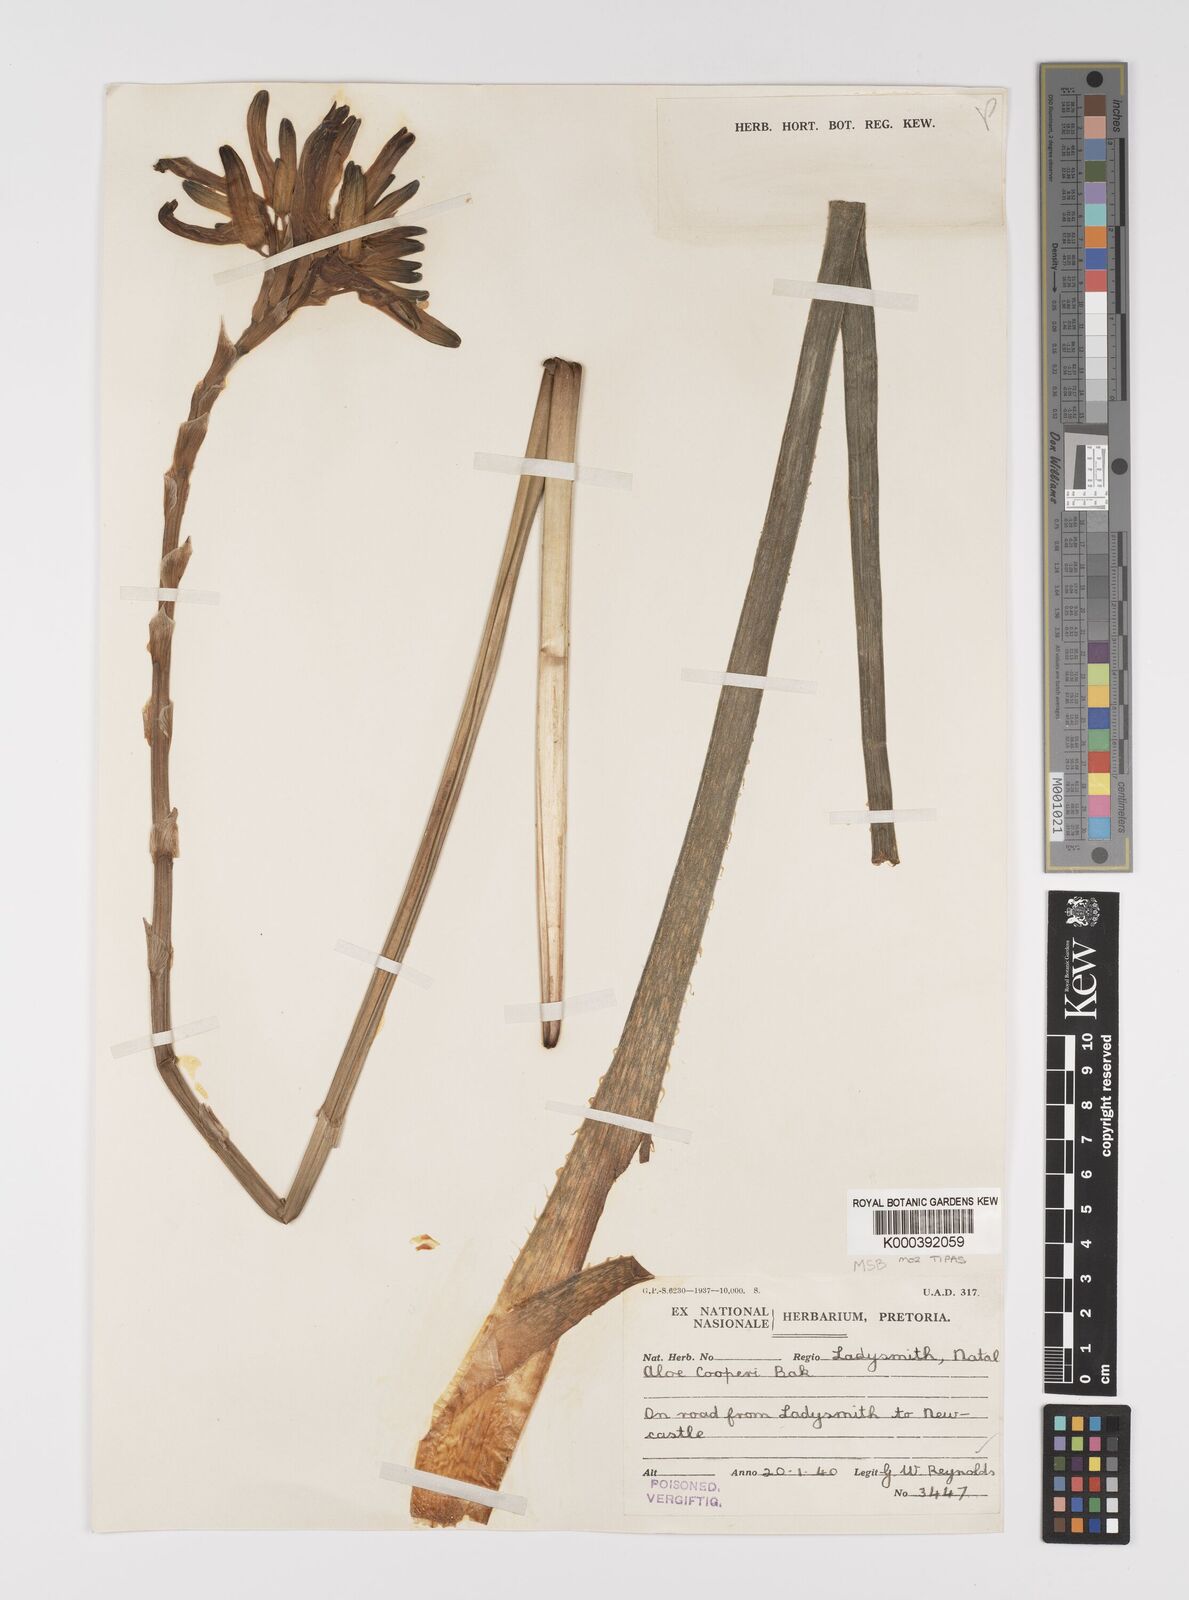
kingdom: Plantae
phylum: Tracheophyta
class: Liliopsida
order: Asparagales
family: Asphodelaceae
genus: Aloe
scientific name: Aloe cooperi
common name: Cooper's aloe
